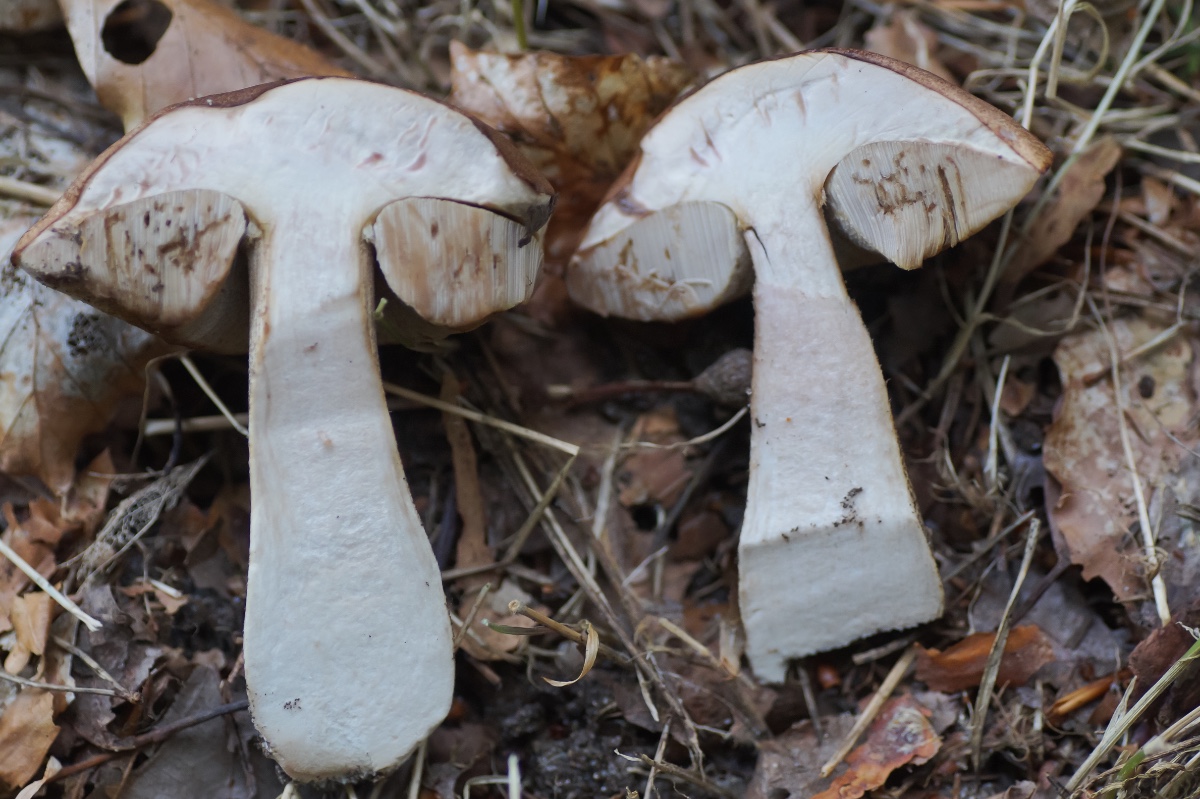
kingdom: Fungi
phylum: Basidiomycota
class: Agaricomycetes
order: Boletales
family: Boletaceae
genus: Leccinum
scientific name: Leccinum scabrum
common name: brun skælrørhat
